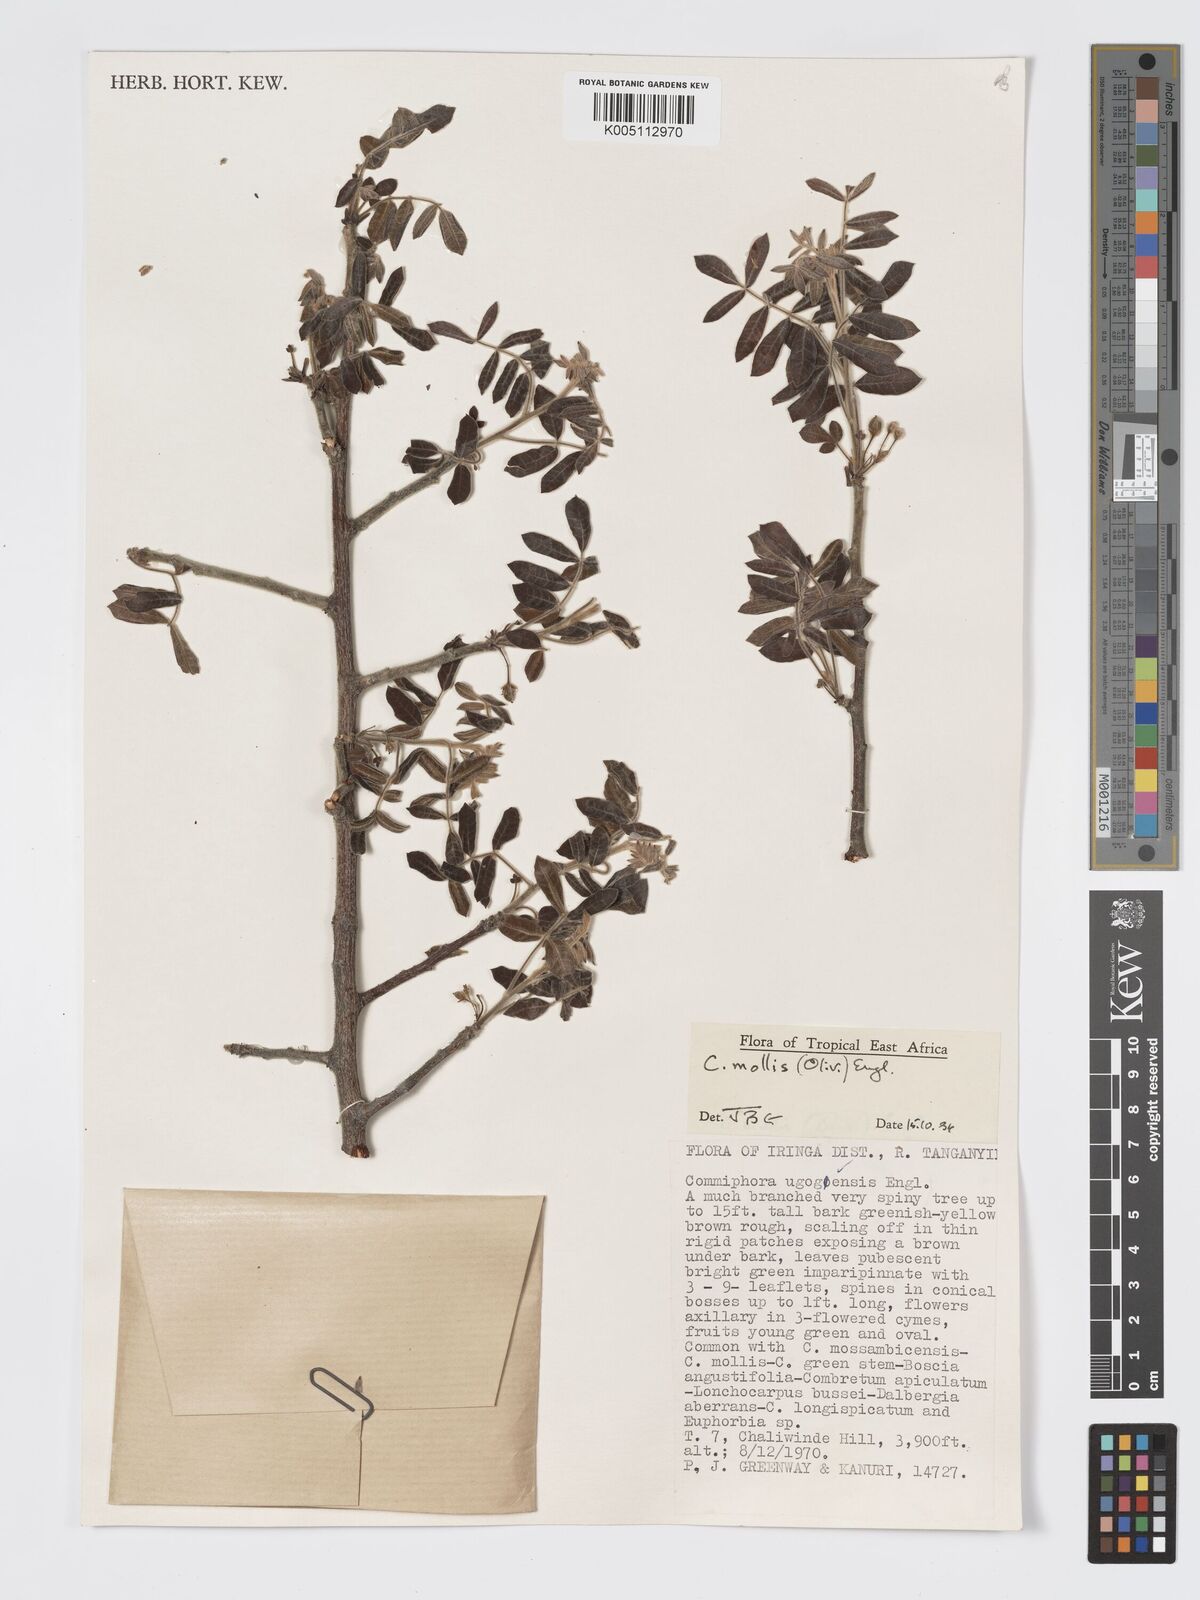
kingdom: Plantae
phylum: Tracheophyta
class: Magnoliopsida
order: Sapindales
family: Burseraceae
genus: Commiphora
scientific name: Commiphora
